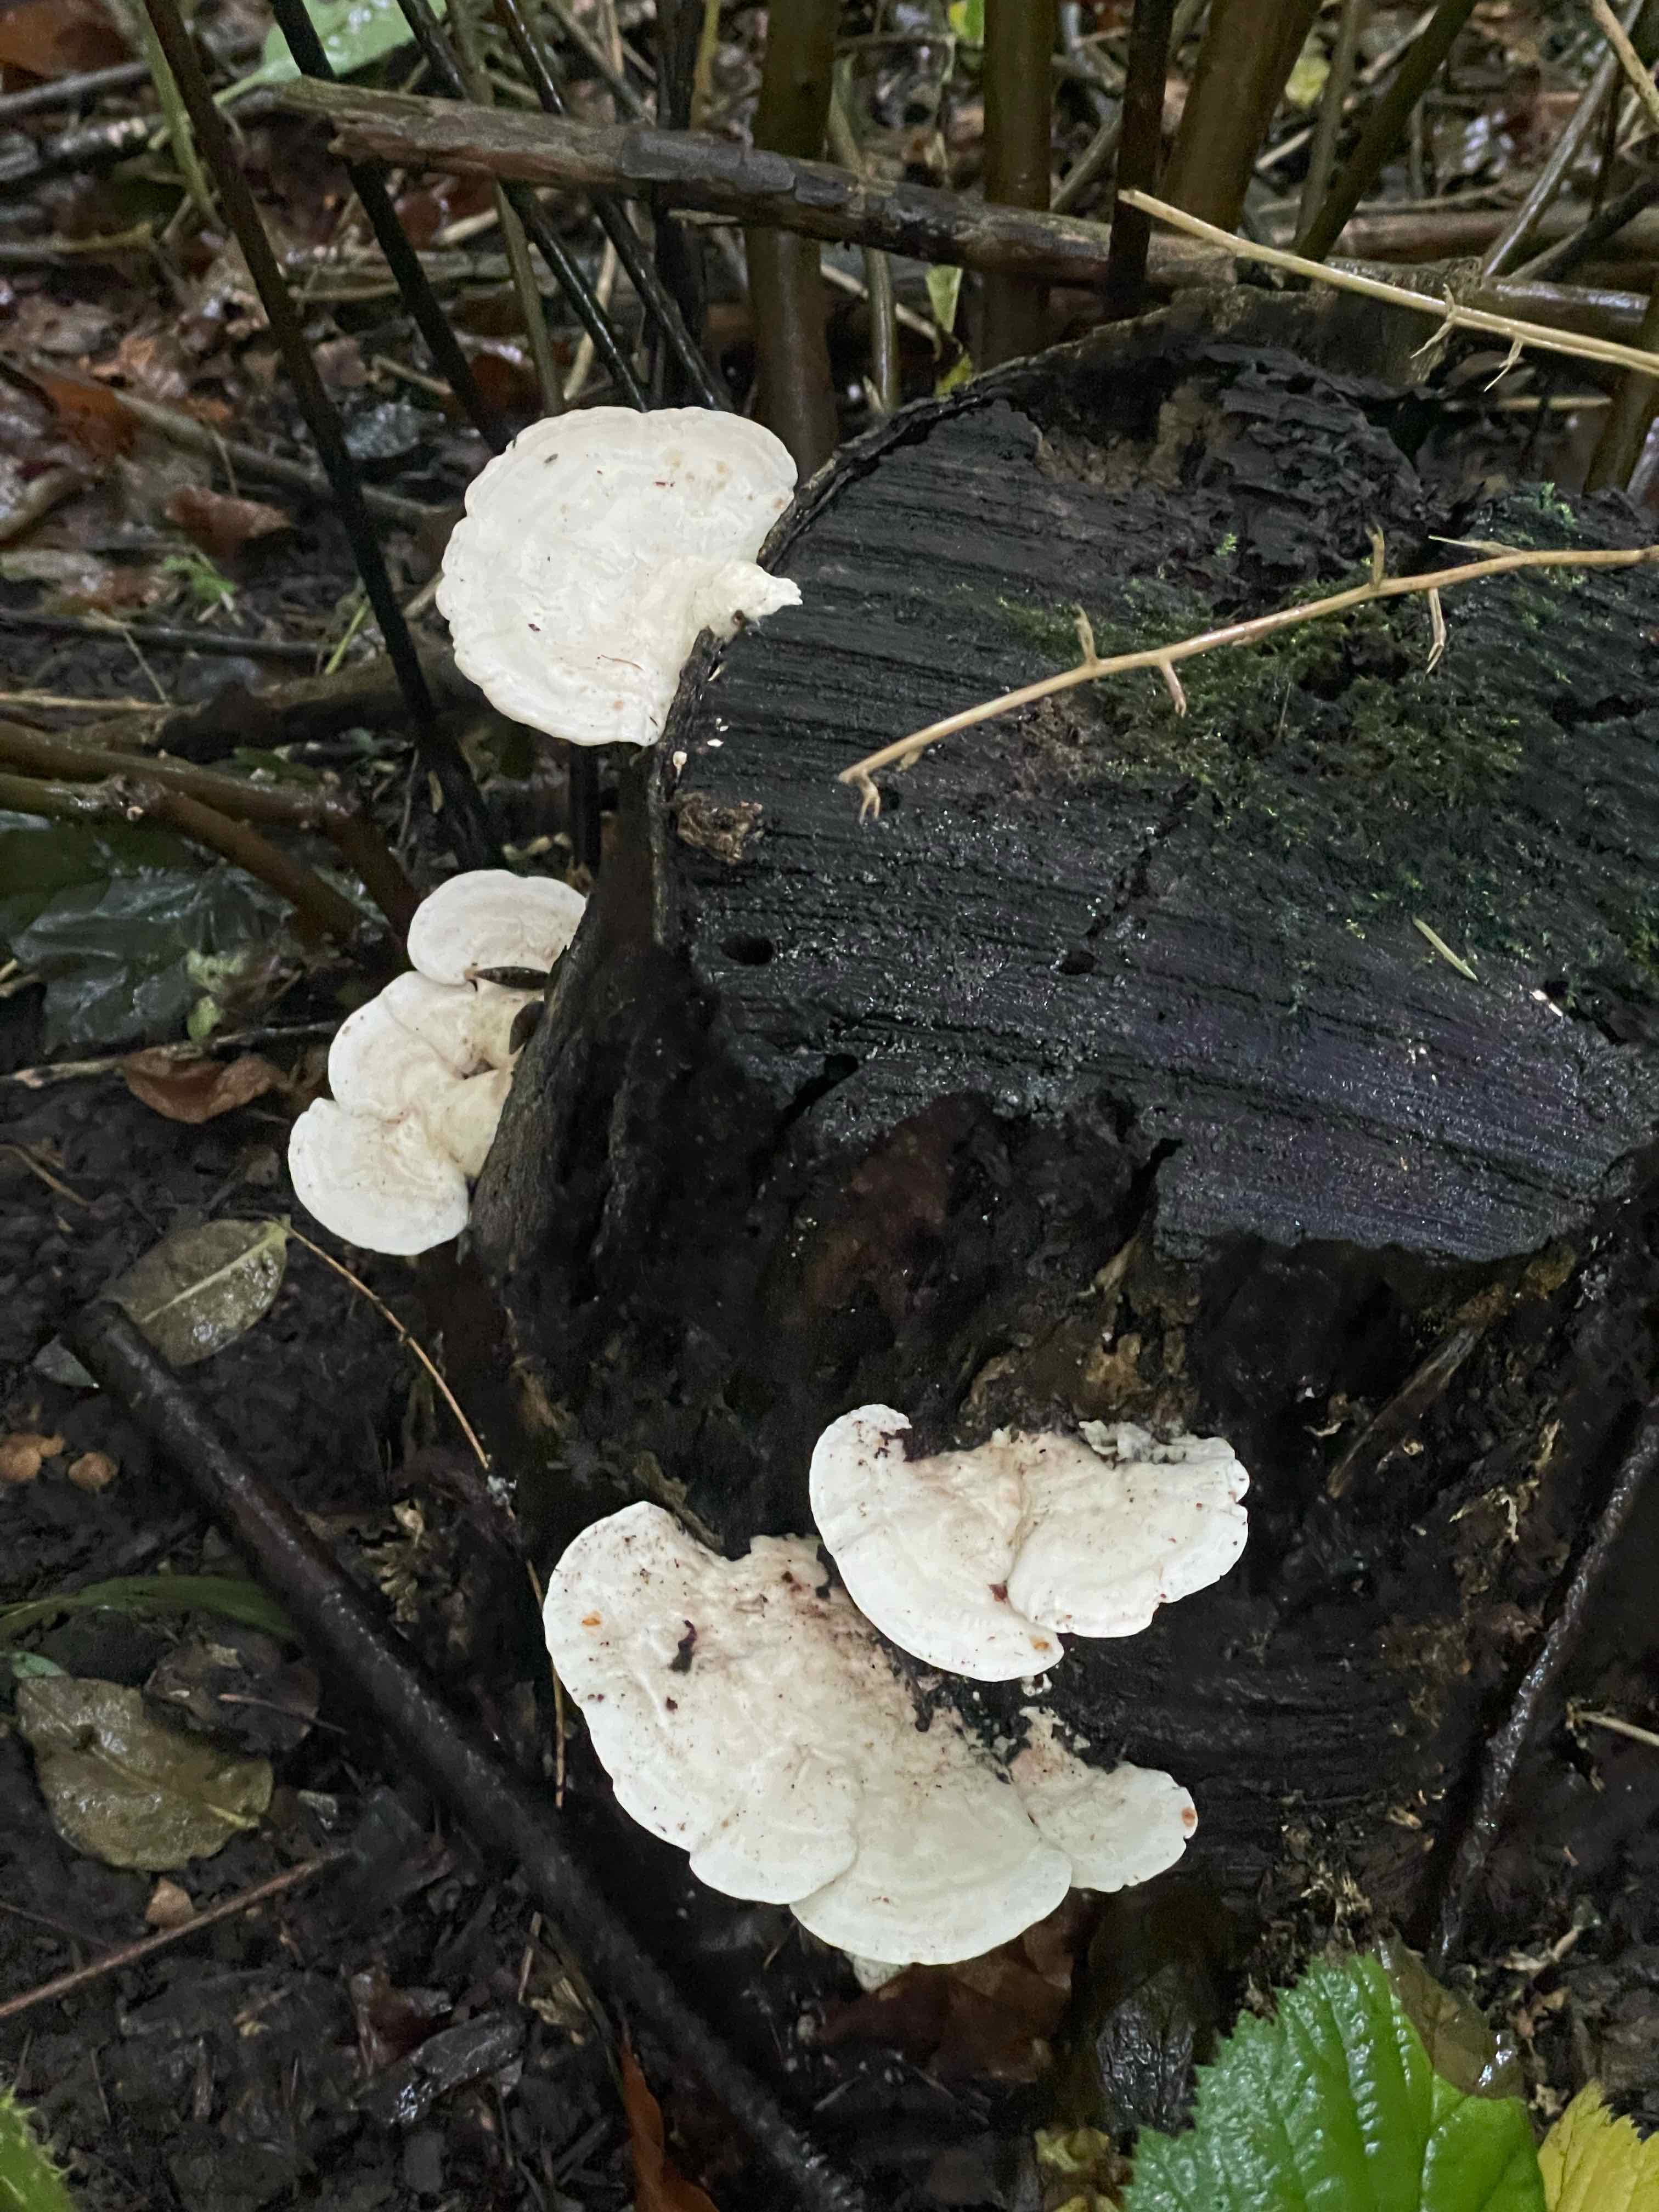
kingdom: Fungi
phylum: Basidiomycota
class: Agaricomycetes
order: Polyporales
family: Polyporaceae
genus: Trametes
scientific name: Trametes gibbosa
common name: puklet læderporesvamp
